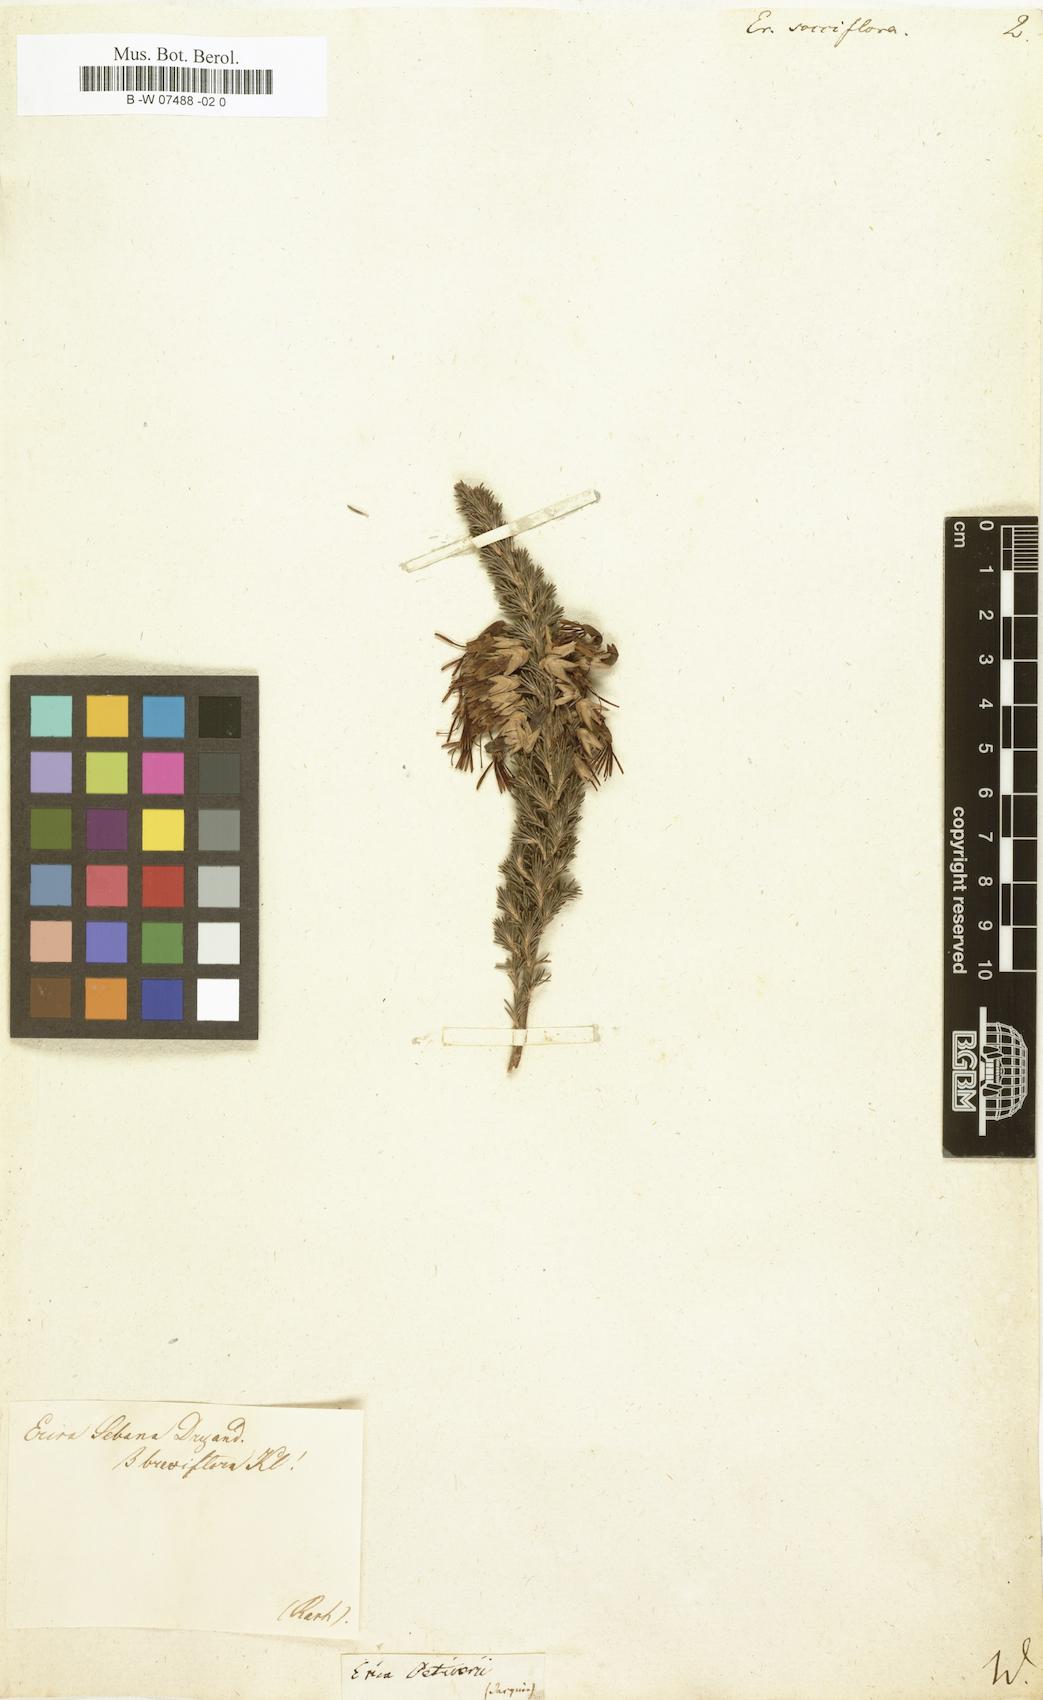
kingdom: Plantae
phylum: Tracheophyta
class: Magnoliopsida
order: Ericales
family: Ericaceae
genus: Erica
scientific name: Erica pumila
